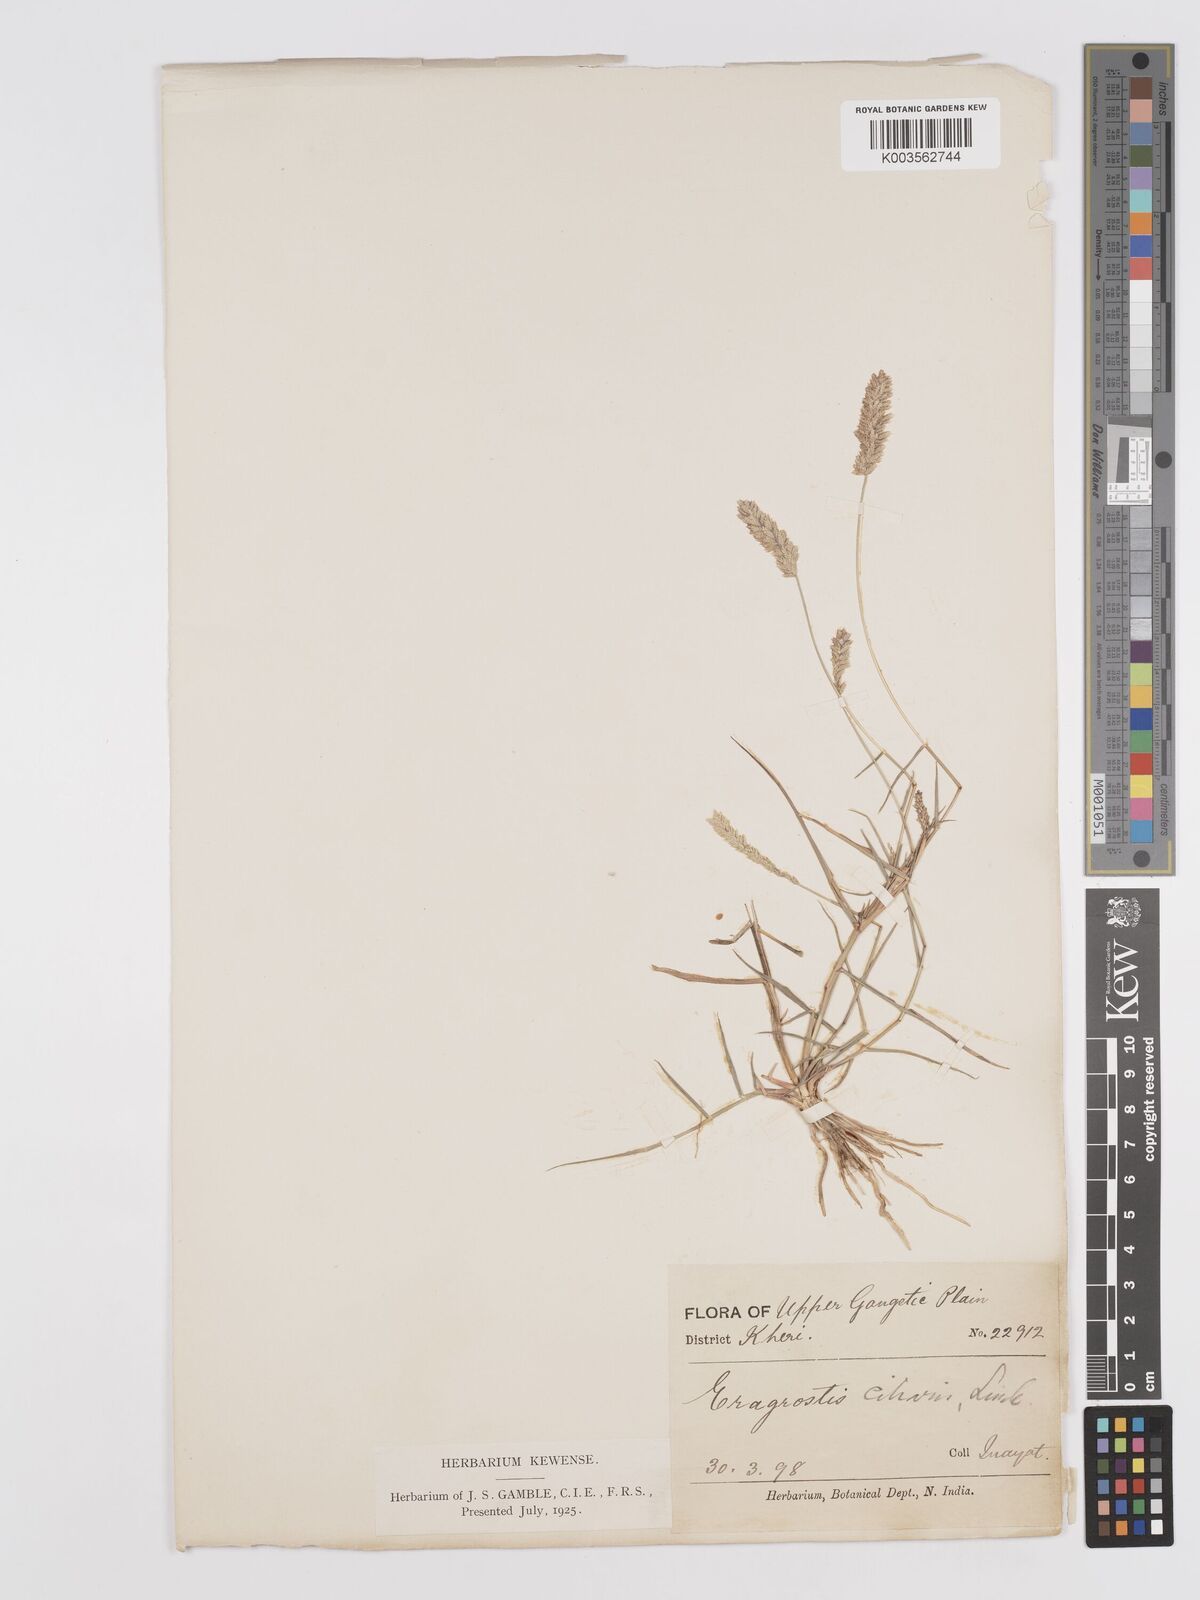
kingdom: Plantae
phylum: Tracheophyta
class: Liliopsida
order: Poales
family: Poaceae
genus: Eragrostis
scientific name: Eragrostis riparia
